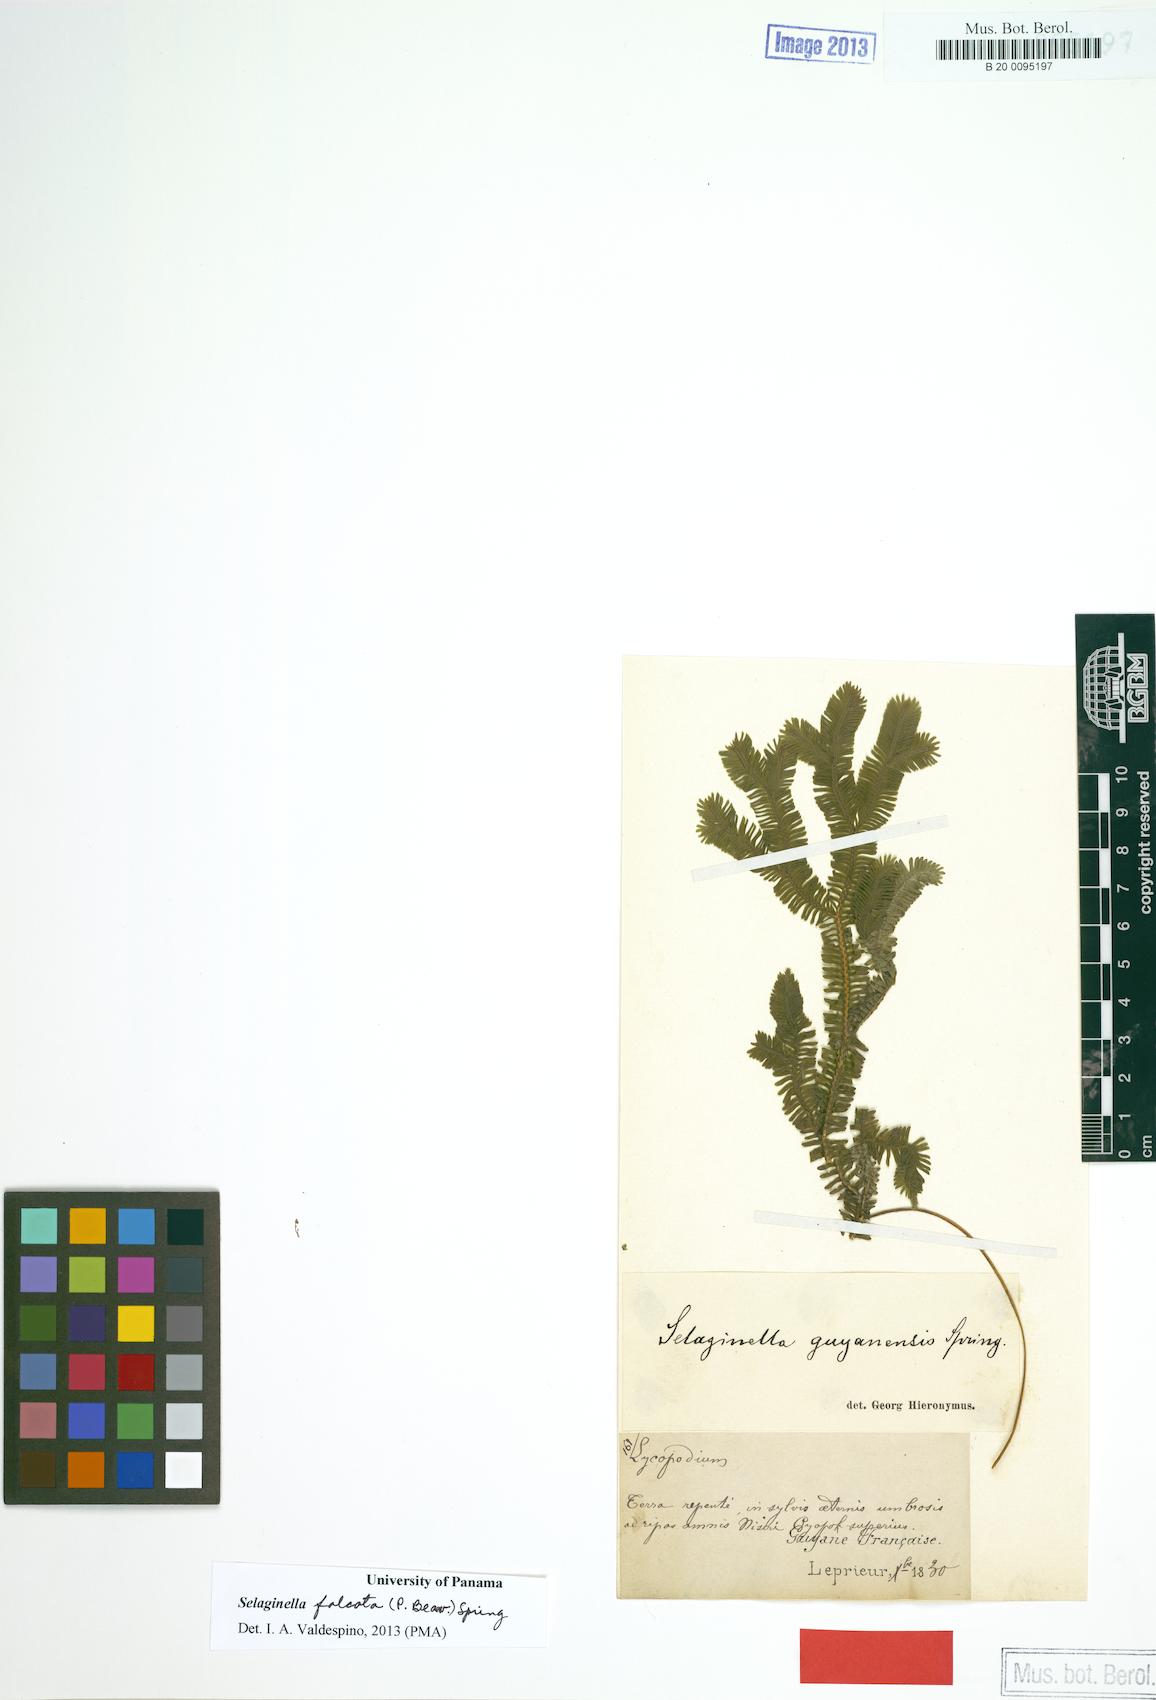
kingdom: Plantae
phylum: Tracheophyta
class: Lycopodiopsida
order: Selaginellales
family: Selaginellaceae
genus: Selaginella
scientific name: Selaginella falcata
